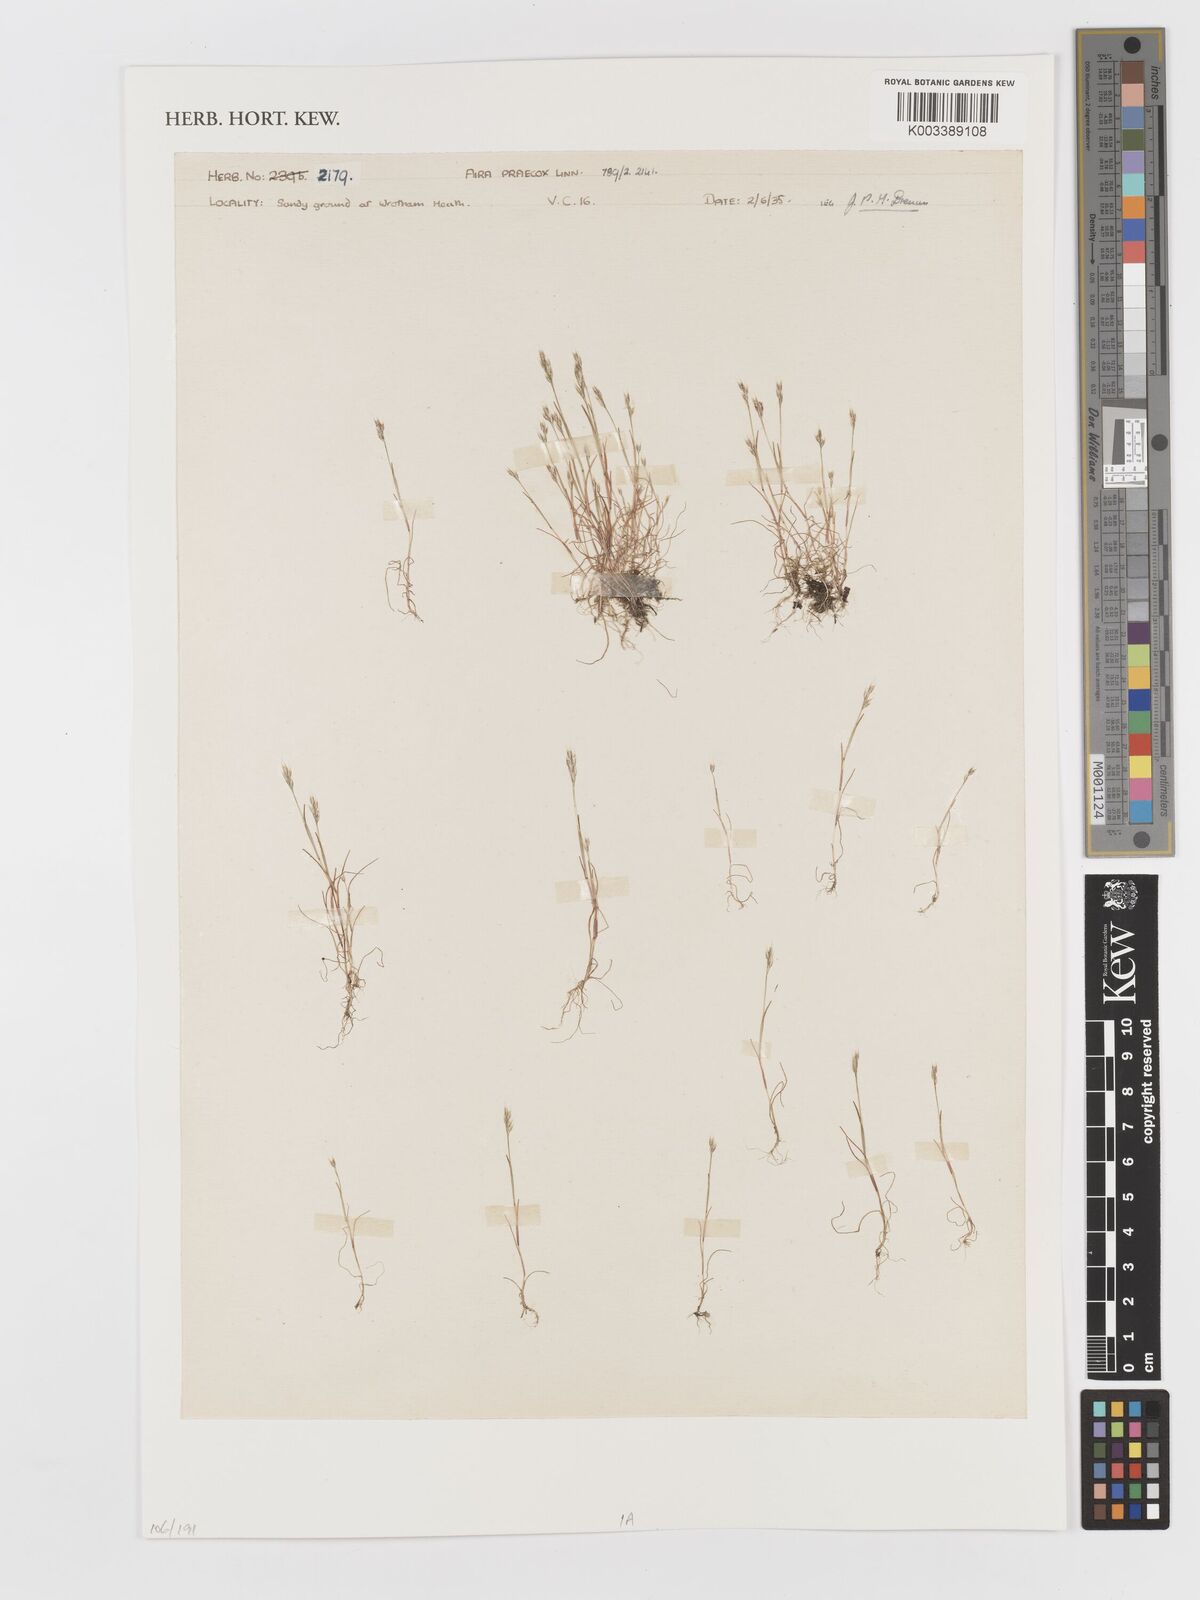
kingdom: Plantae
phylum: Tracheophyta
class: Liliopsida
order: Poales
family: Poaceae
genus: Aira
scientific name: Aira praecox
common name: Early hair-grass
